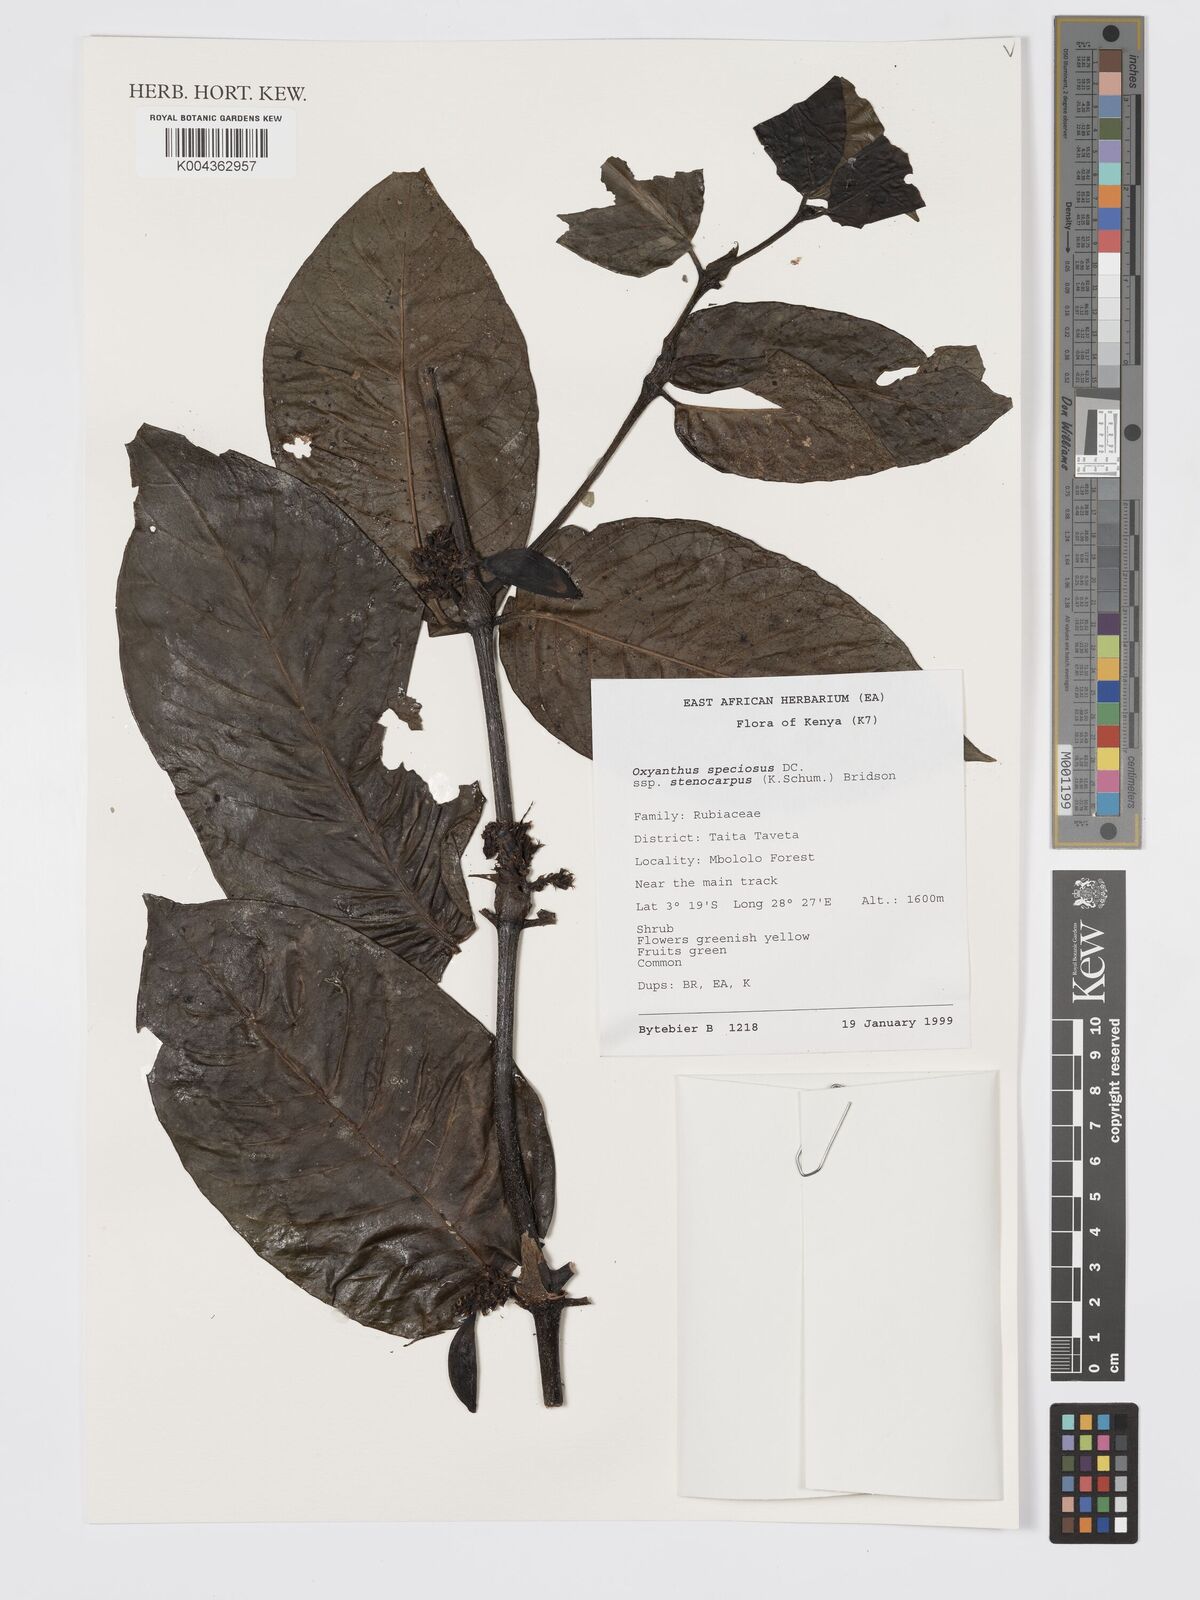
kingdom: Plantae
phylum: Tracheophyta
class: Magnoliopsida
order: Gentianales
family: Rubiaceae
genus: Oxyanthus
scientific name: Oxyanthus speciosus
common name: Whipstick loquat
